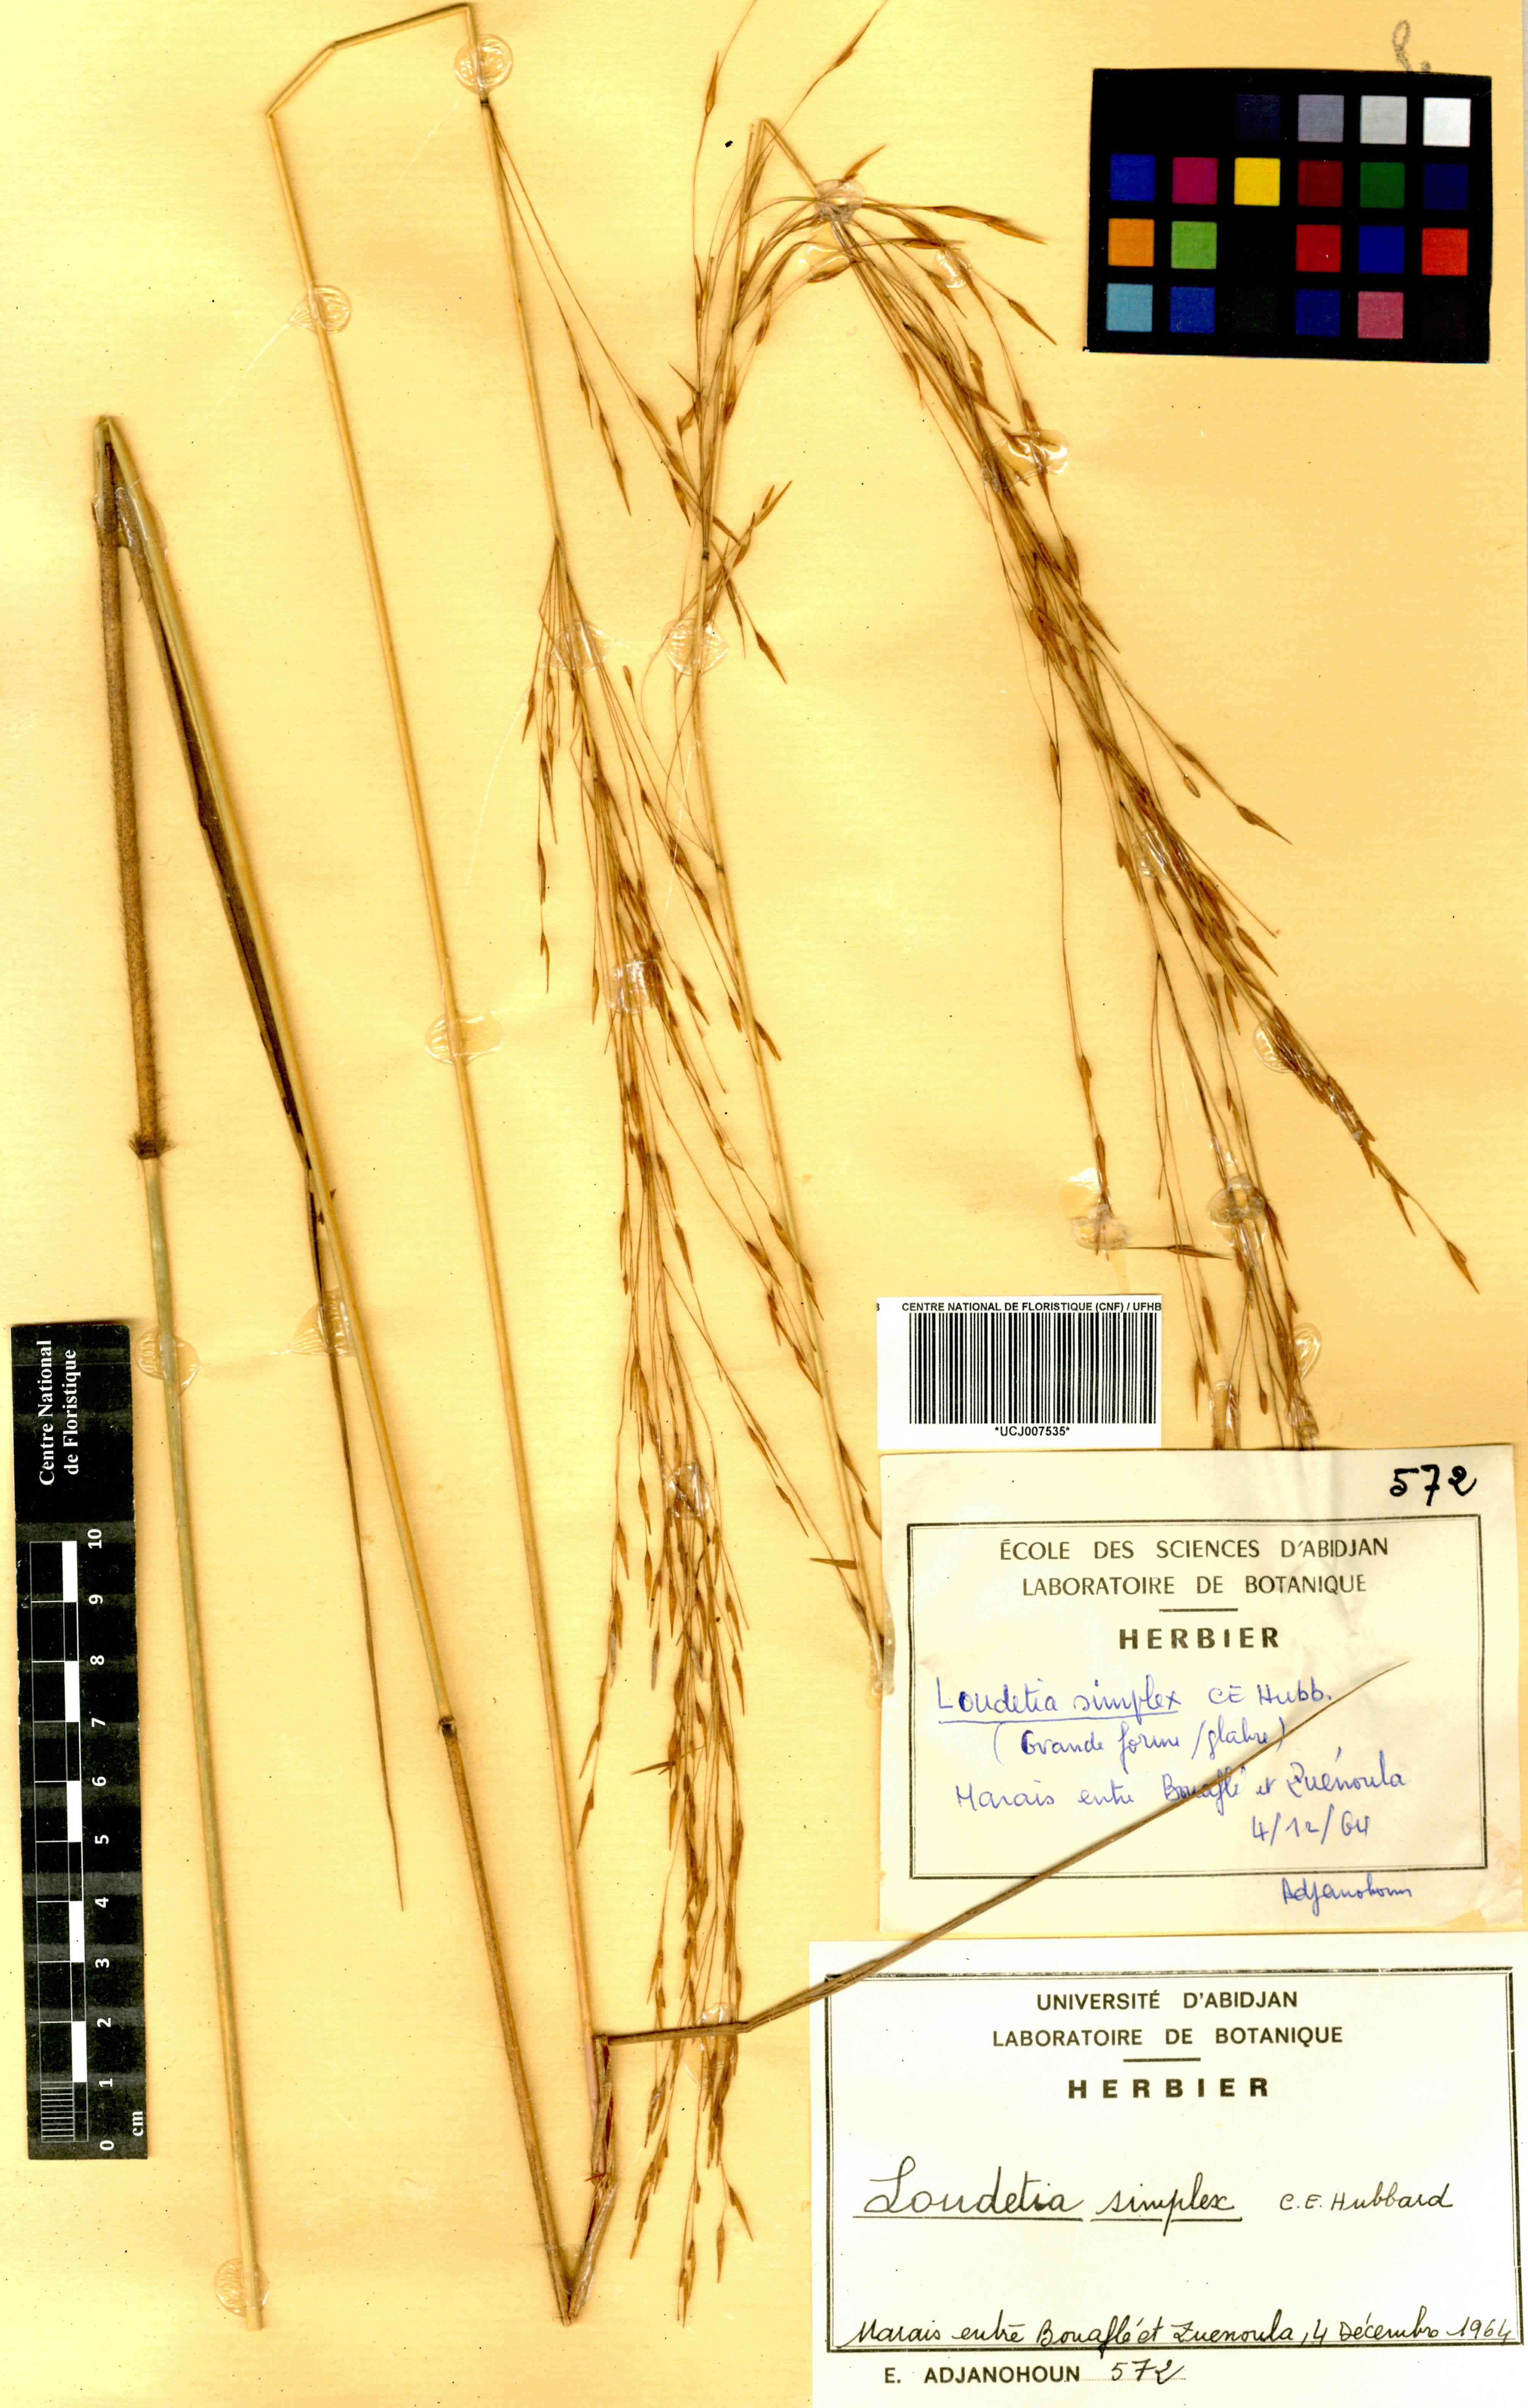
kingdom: Plantae
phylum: Tracheophyta
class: Liliopsida
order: Poales
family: Poaceae
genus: Loudetia
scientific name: Loudetia simplex
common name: Common russet grass
